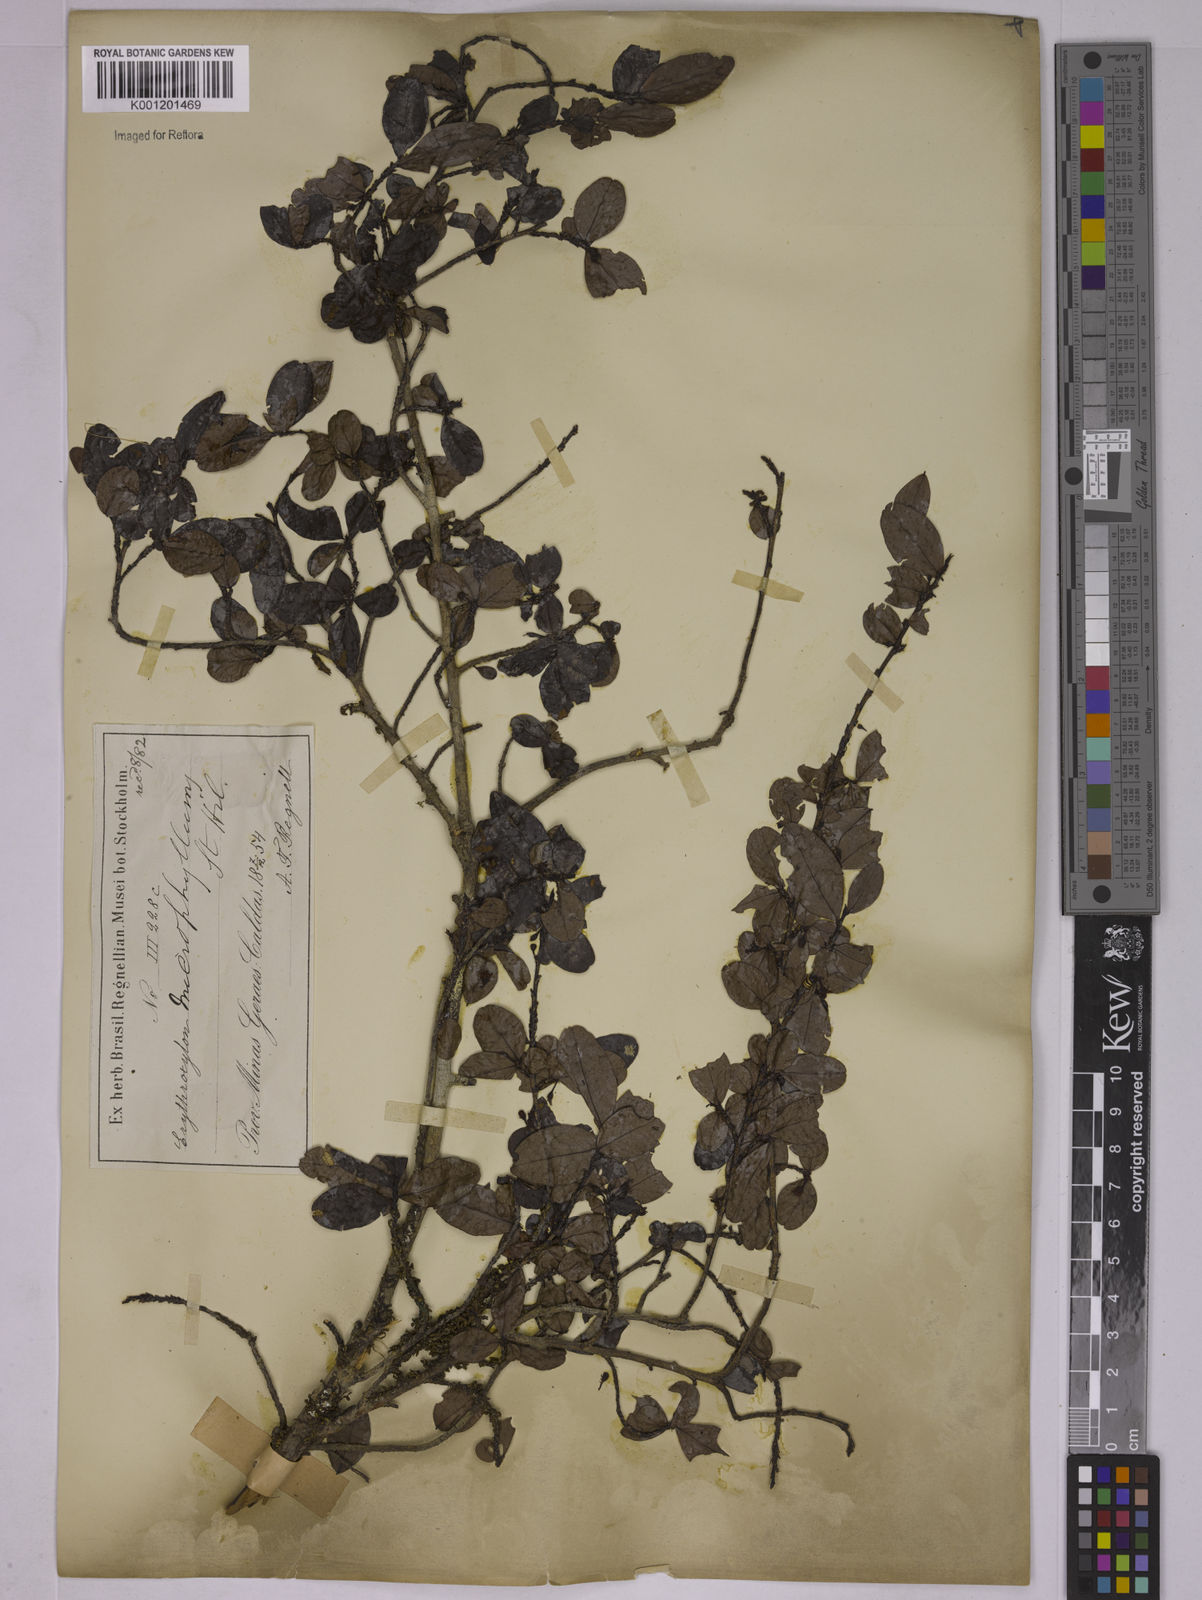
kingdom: Plantae
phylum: Tracheophyta
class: Magnoliopsida
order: Malpighiales
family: Erythroxylaceae
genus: Erythroxylum
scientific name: Erythroxylum cuneifolium
